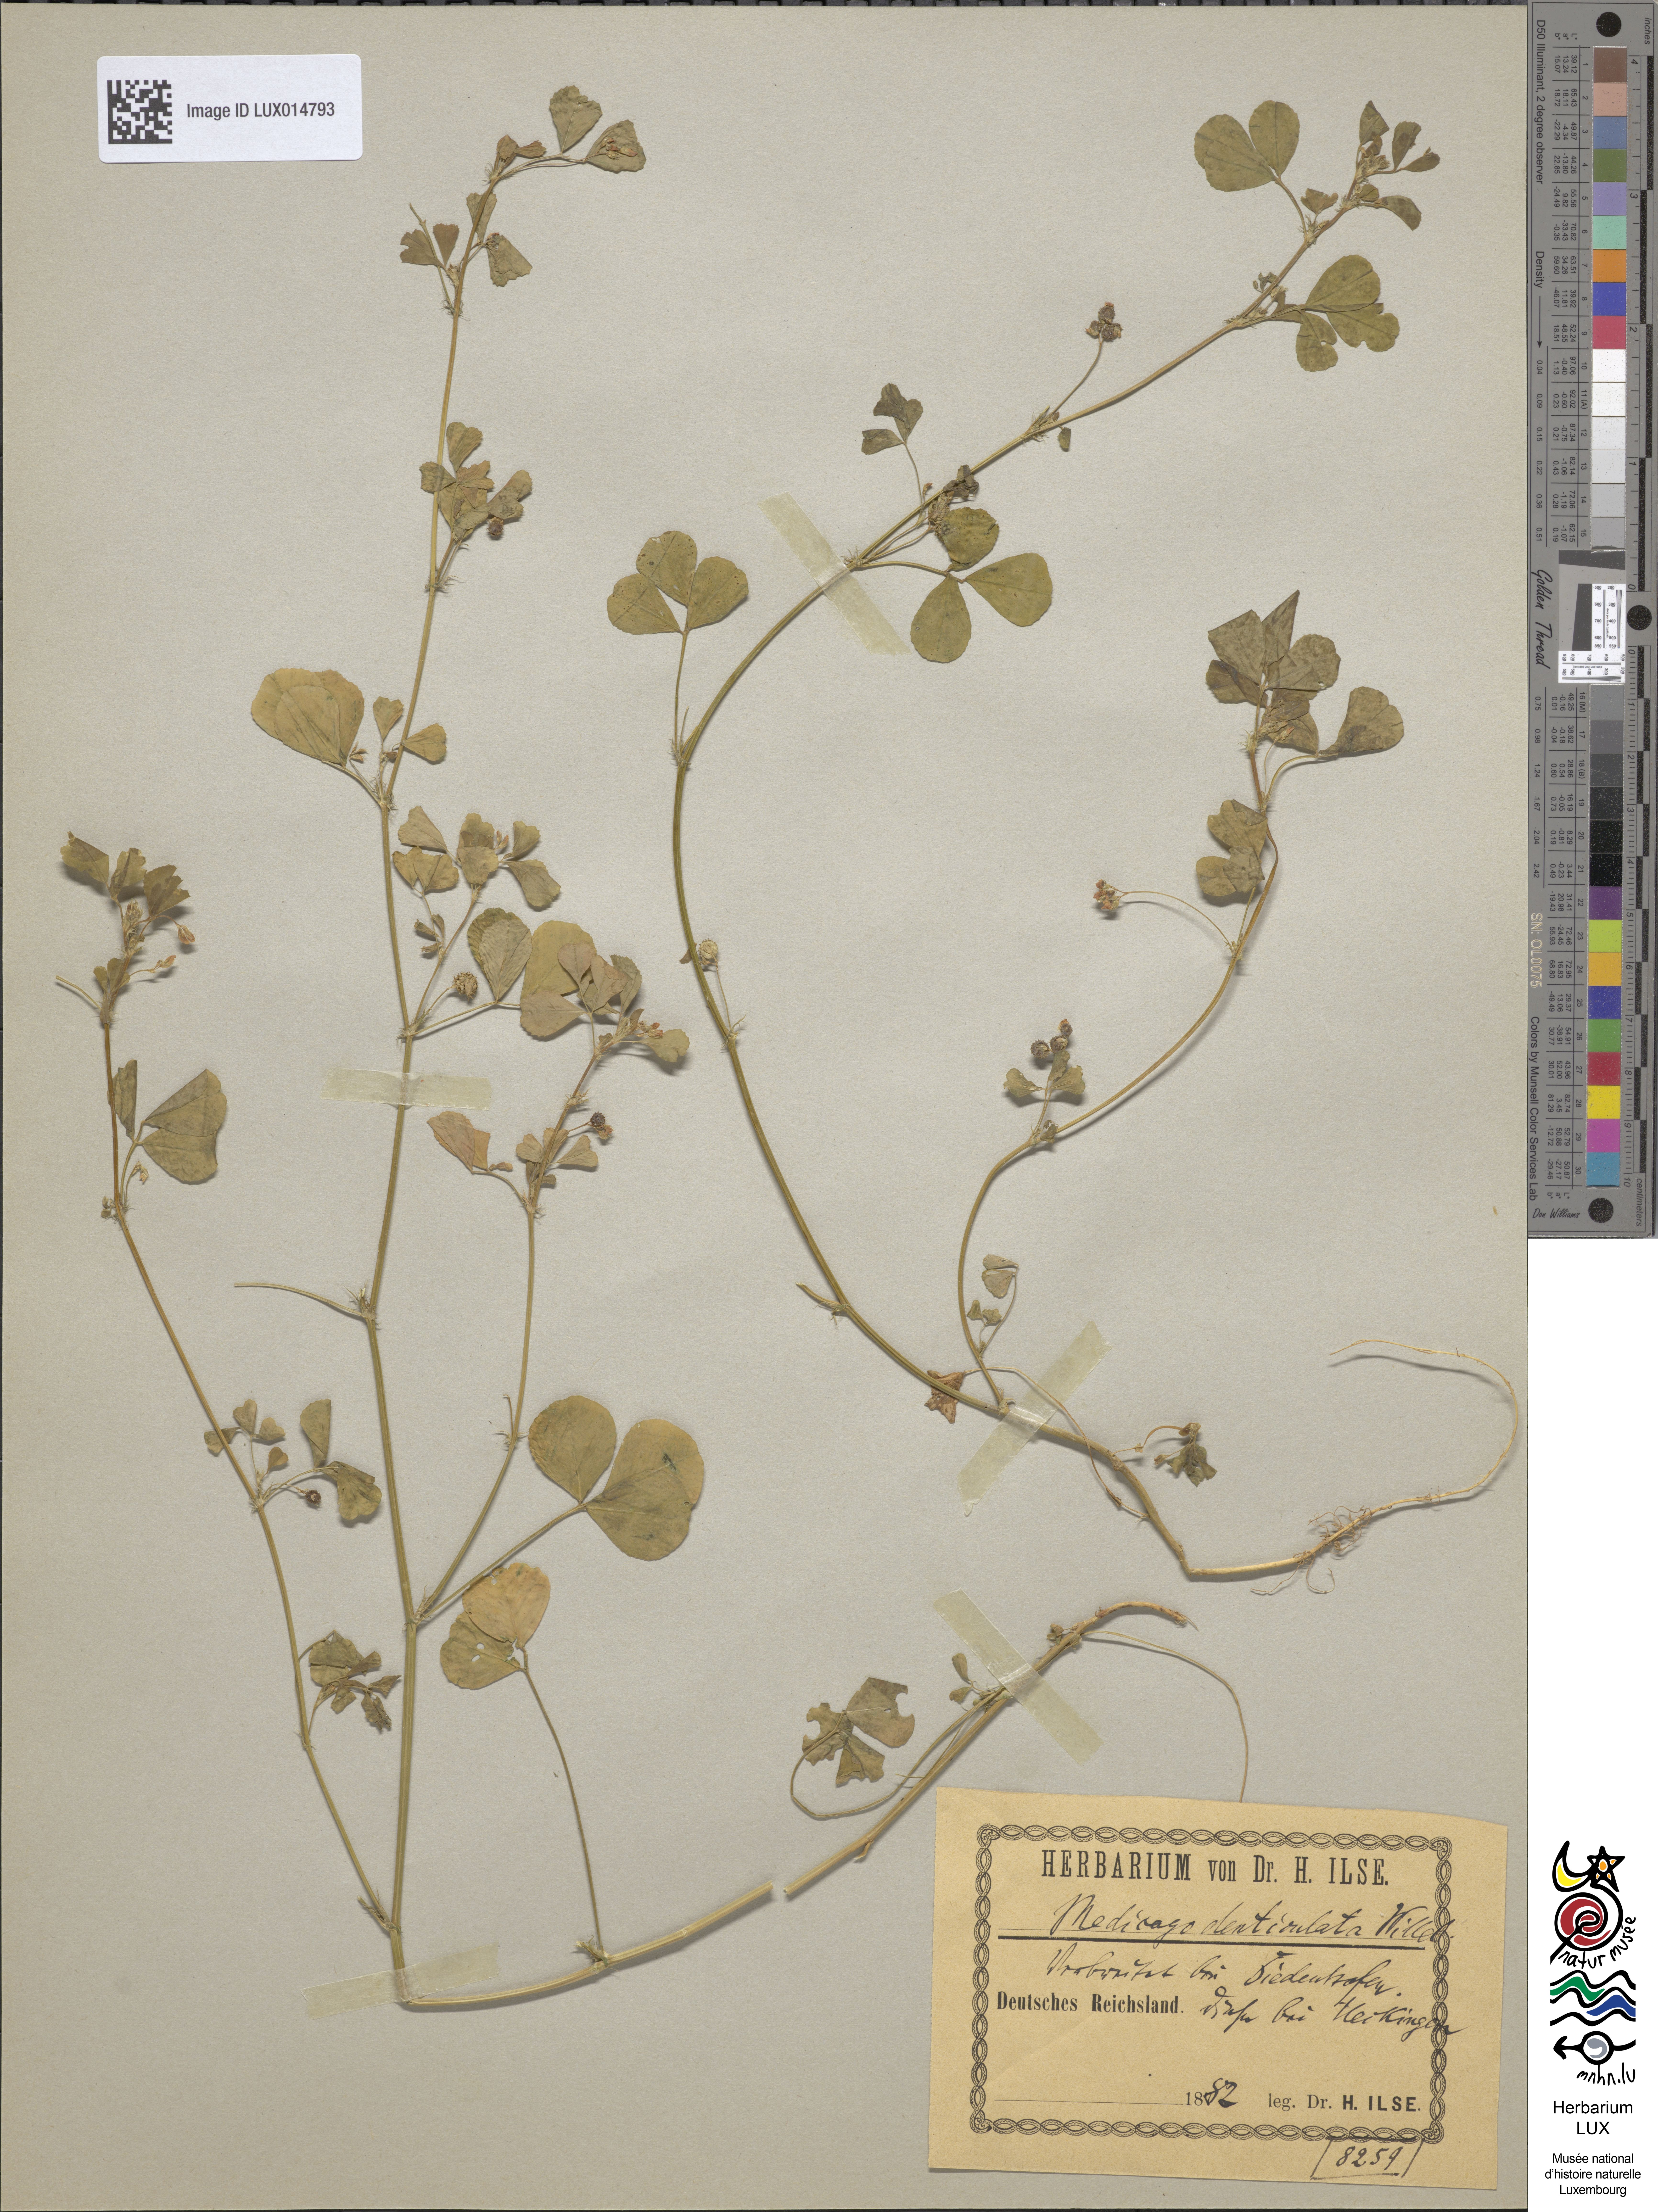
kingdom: Plantae
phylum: Tracheophyta
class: Magnoliopsida
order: Fabales
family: Fabaceae
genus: Medicago
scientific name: Medicago polymorpha
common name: Burclover
